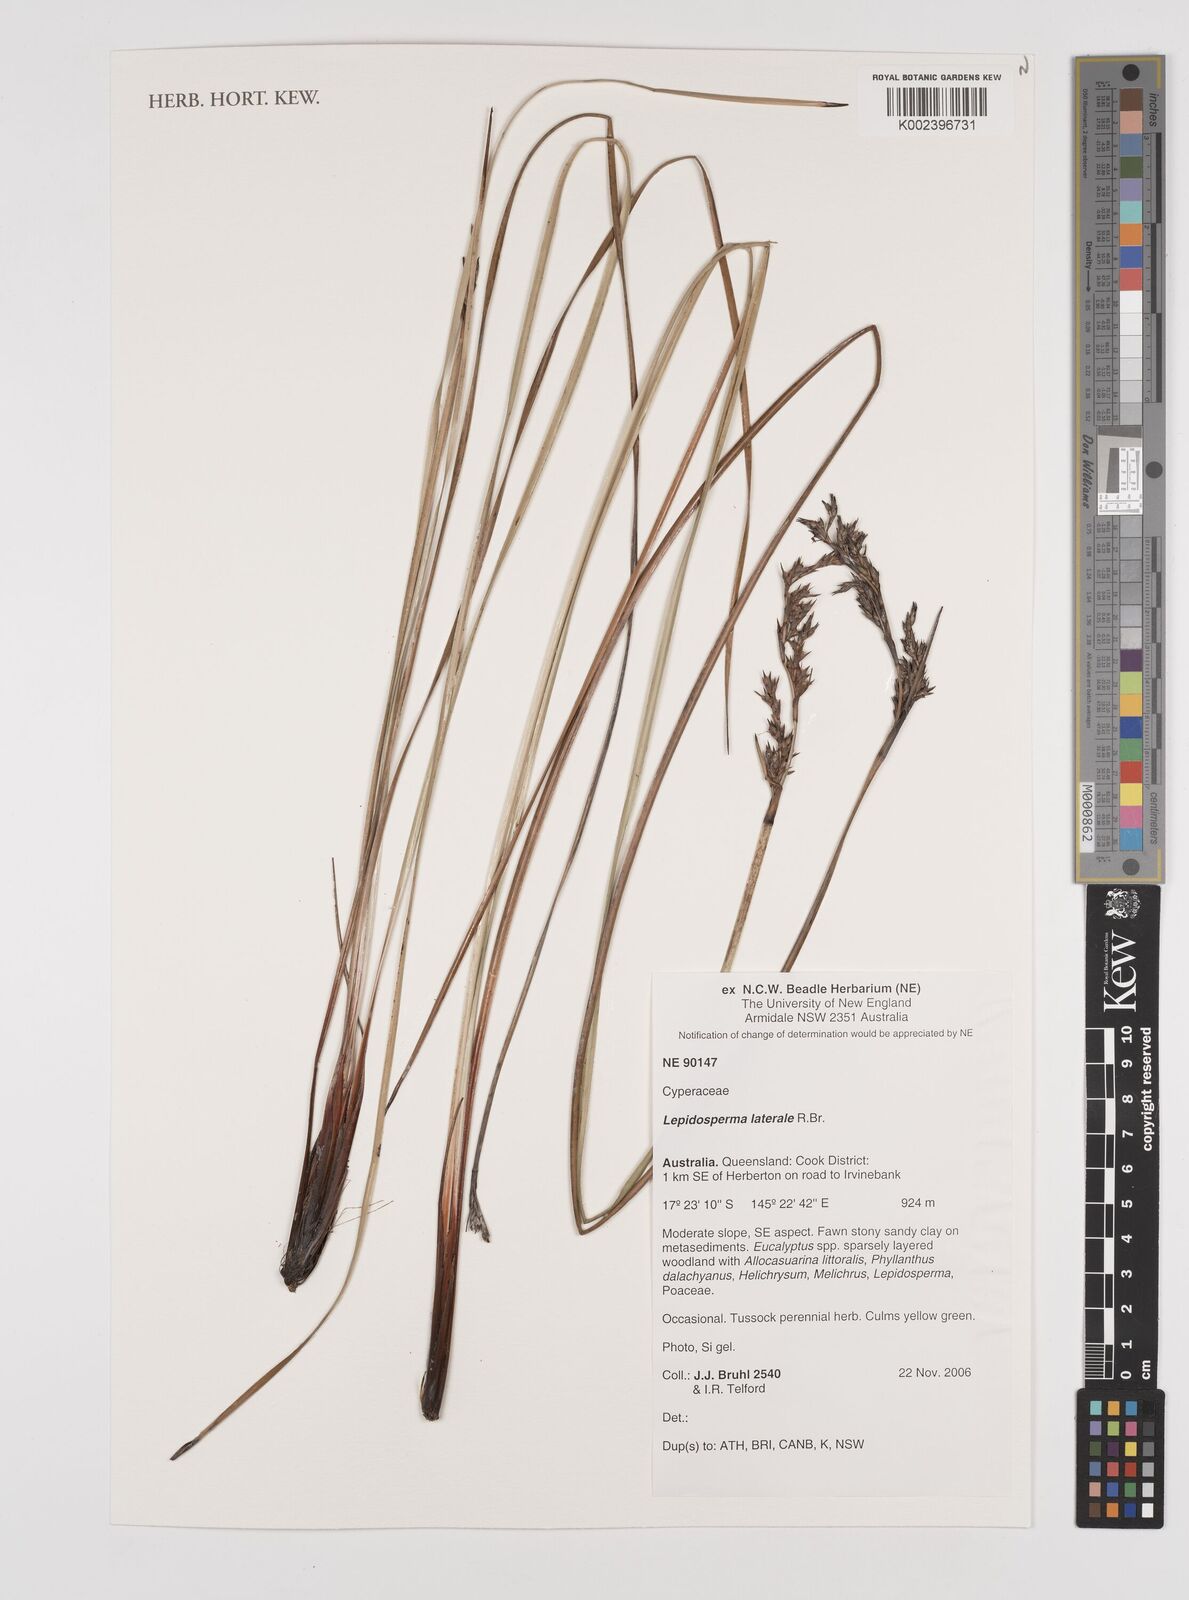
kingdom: Plantae
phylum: Tracheophyta
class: Liliopsida
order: Poales
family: Cyperaceae
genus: Lepidosperma
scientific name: Lepidosperma laterale
